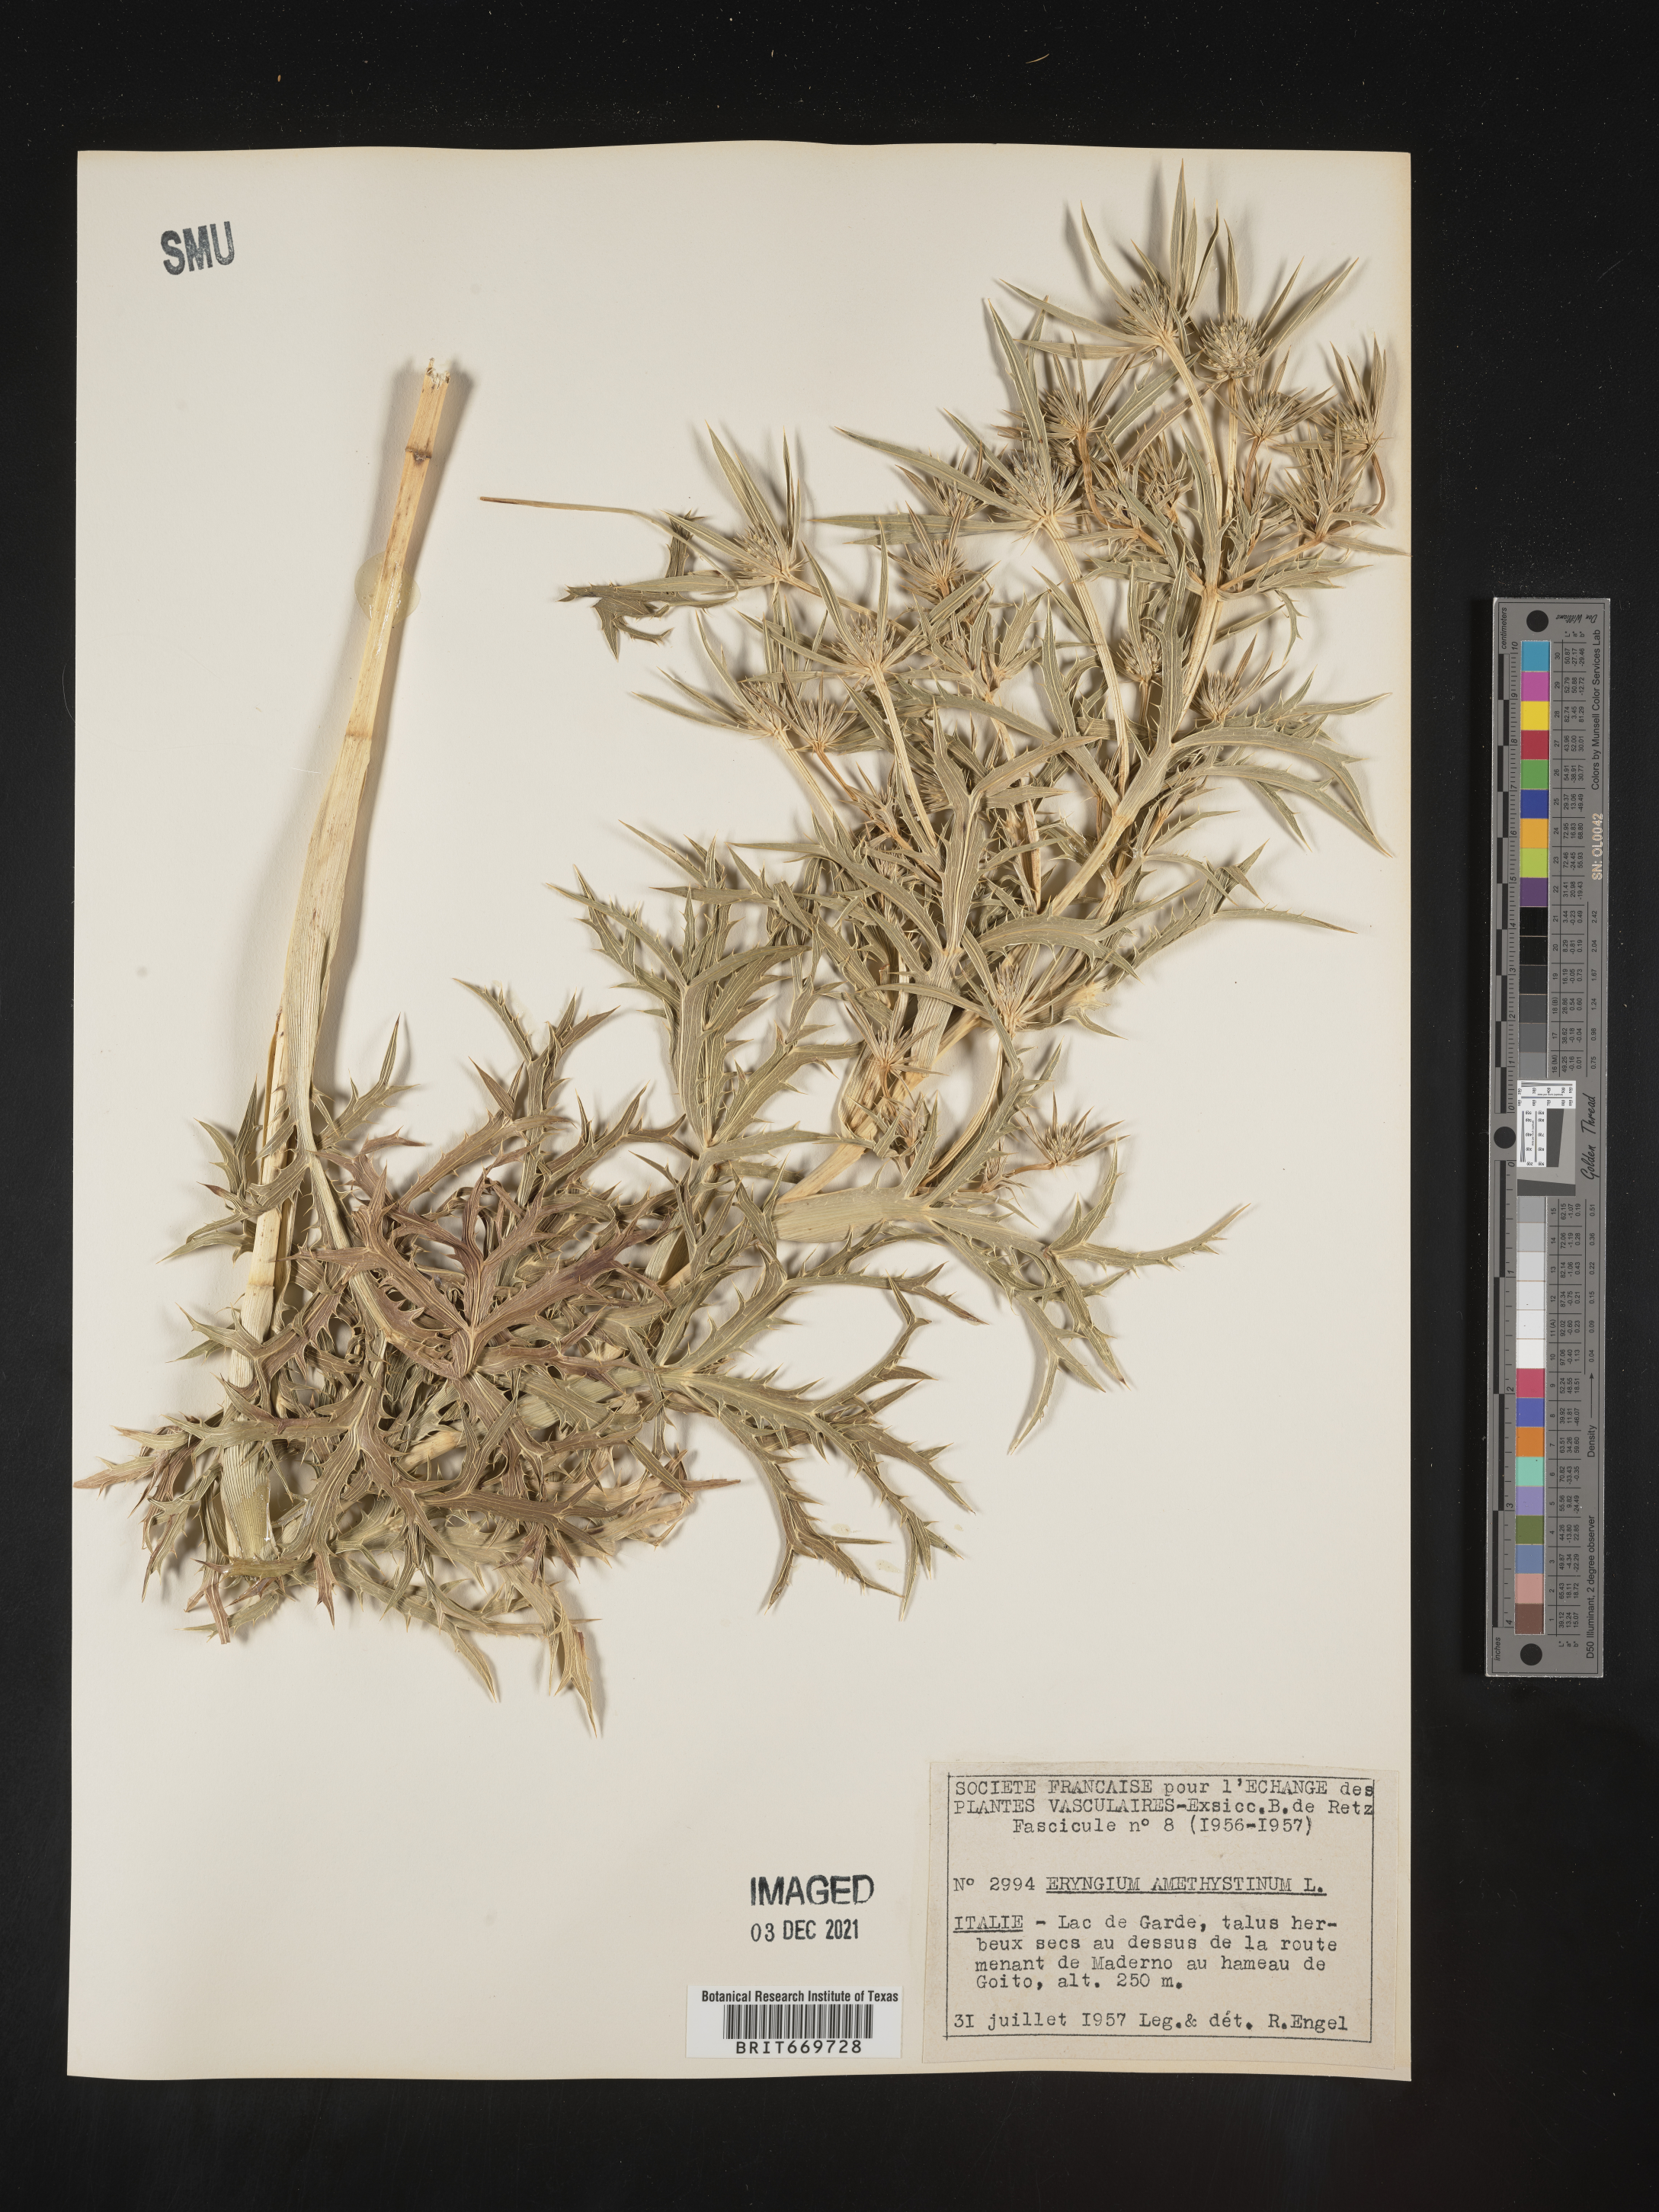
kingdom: Plantae
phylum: Tracheophyta
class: Magnoliopsida
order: Apiales
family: Apiaceae
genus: Eryngium
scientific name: Eryngium
